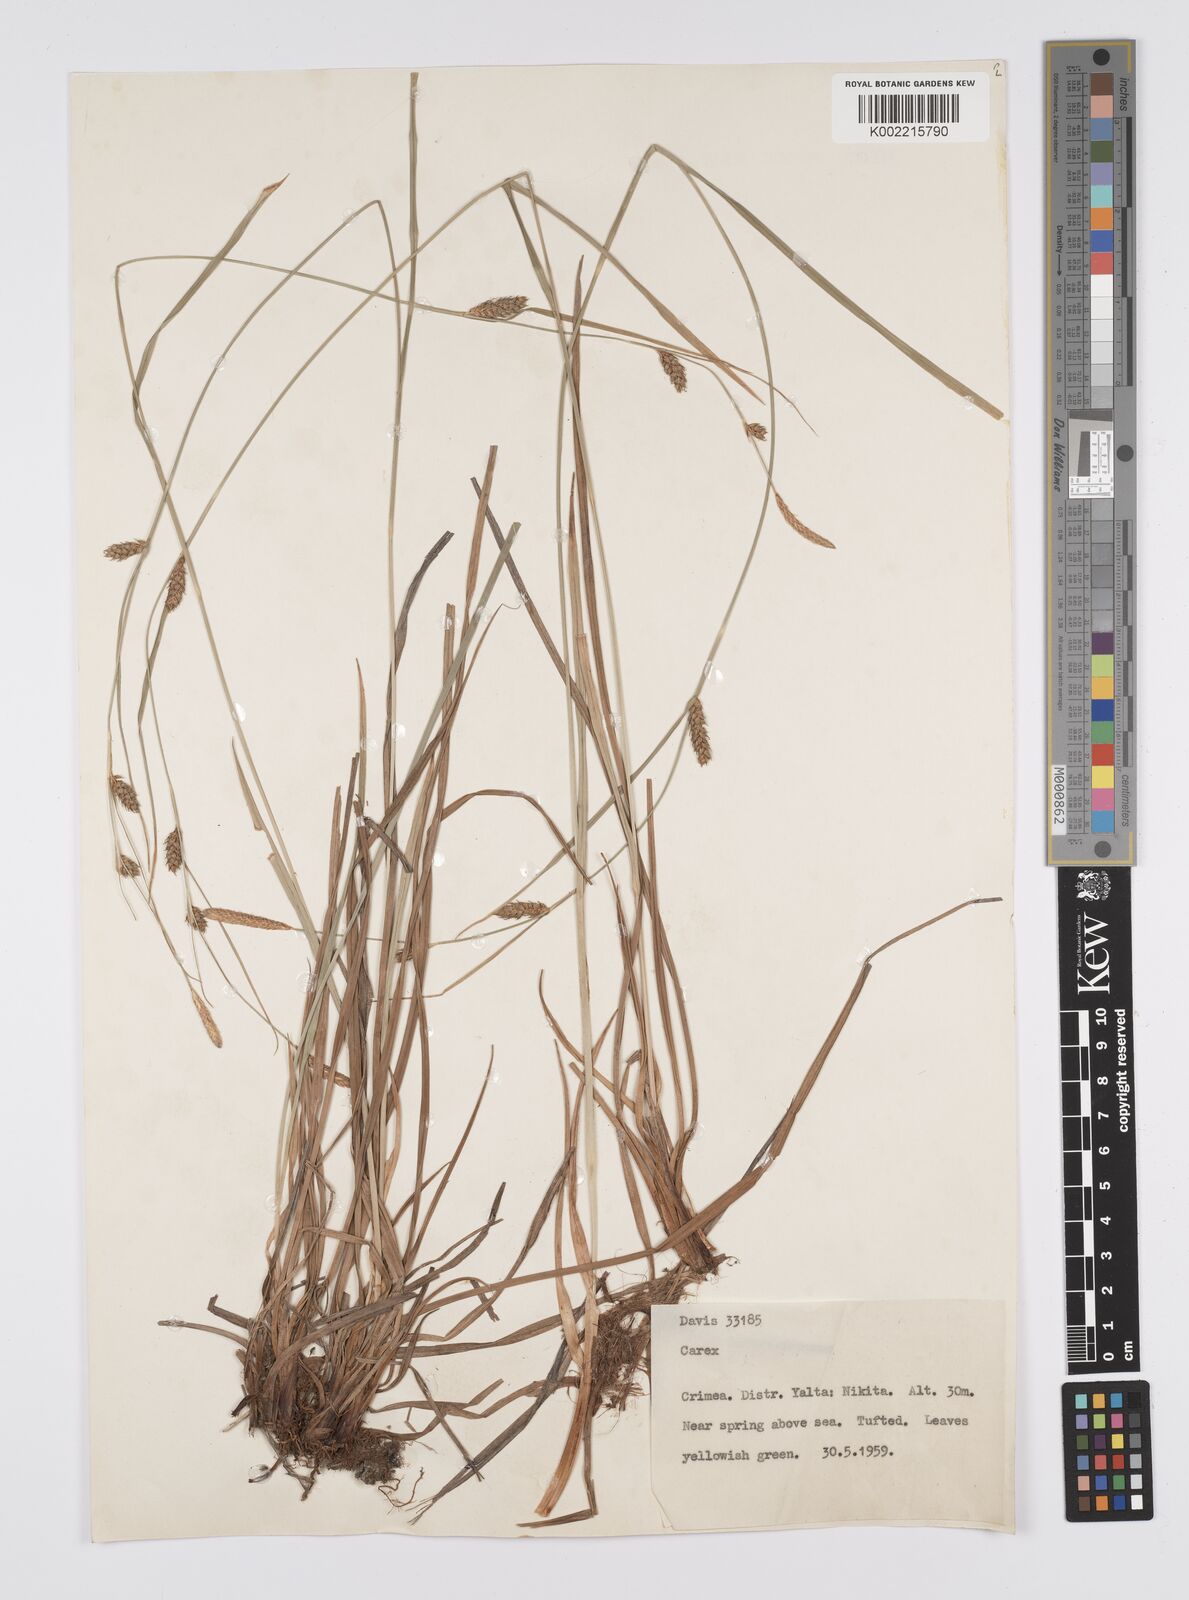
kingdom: Plantae
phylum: Tracheophyta
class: Liliopsida
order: Poales
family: Cyperaceae
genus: Carex
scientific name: Carex
